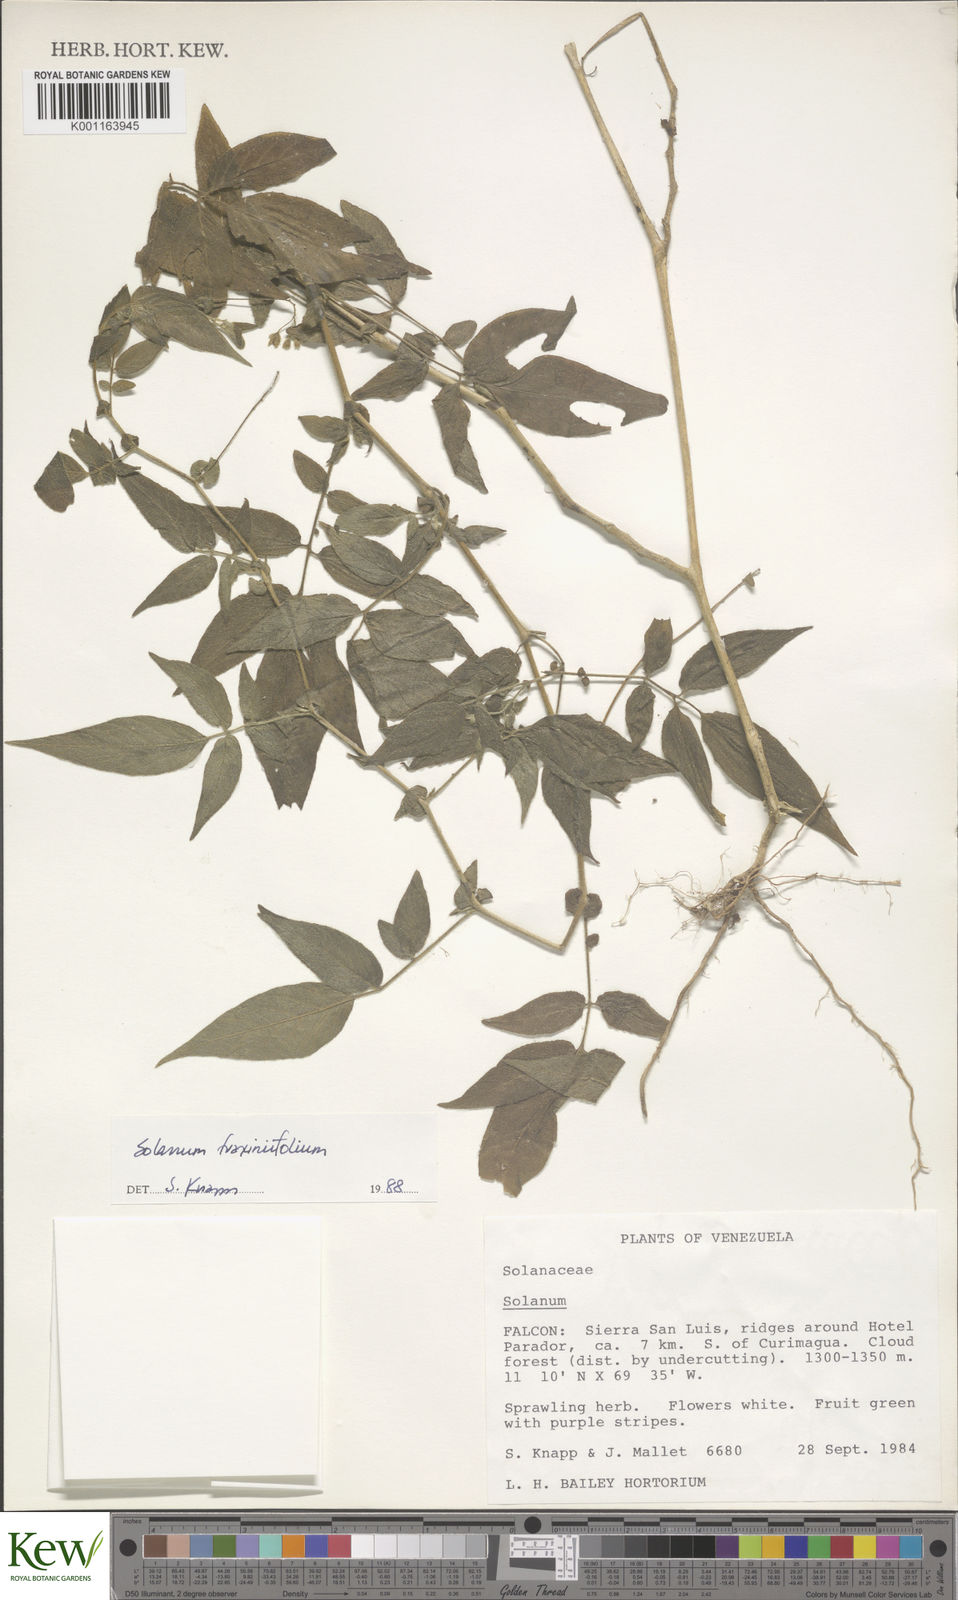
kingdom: Plantae
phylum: Tracheophyta
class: Magnoliopsida
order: Solanales
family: Solanaceae
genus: Solanum
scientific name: Solanum fraxinifolium
